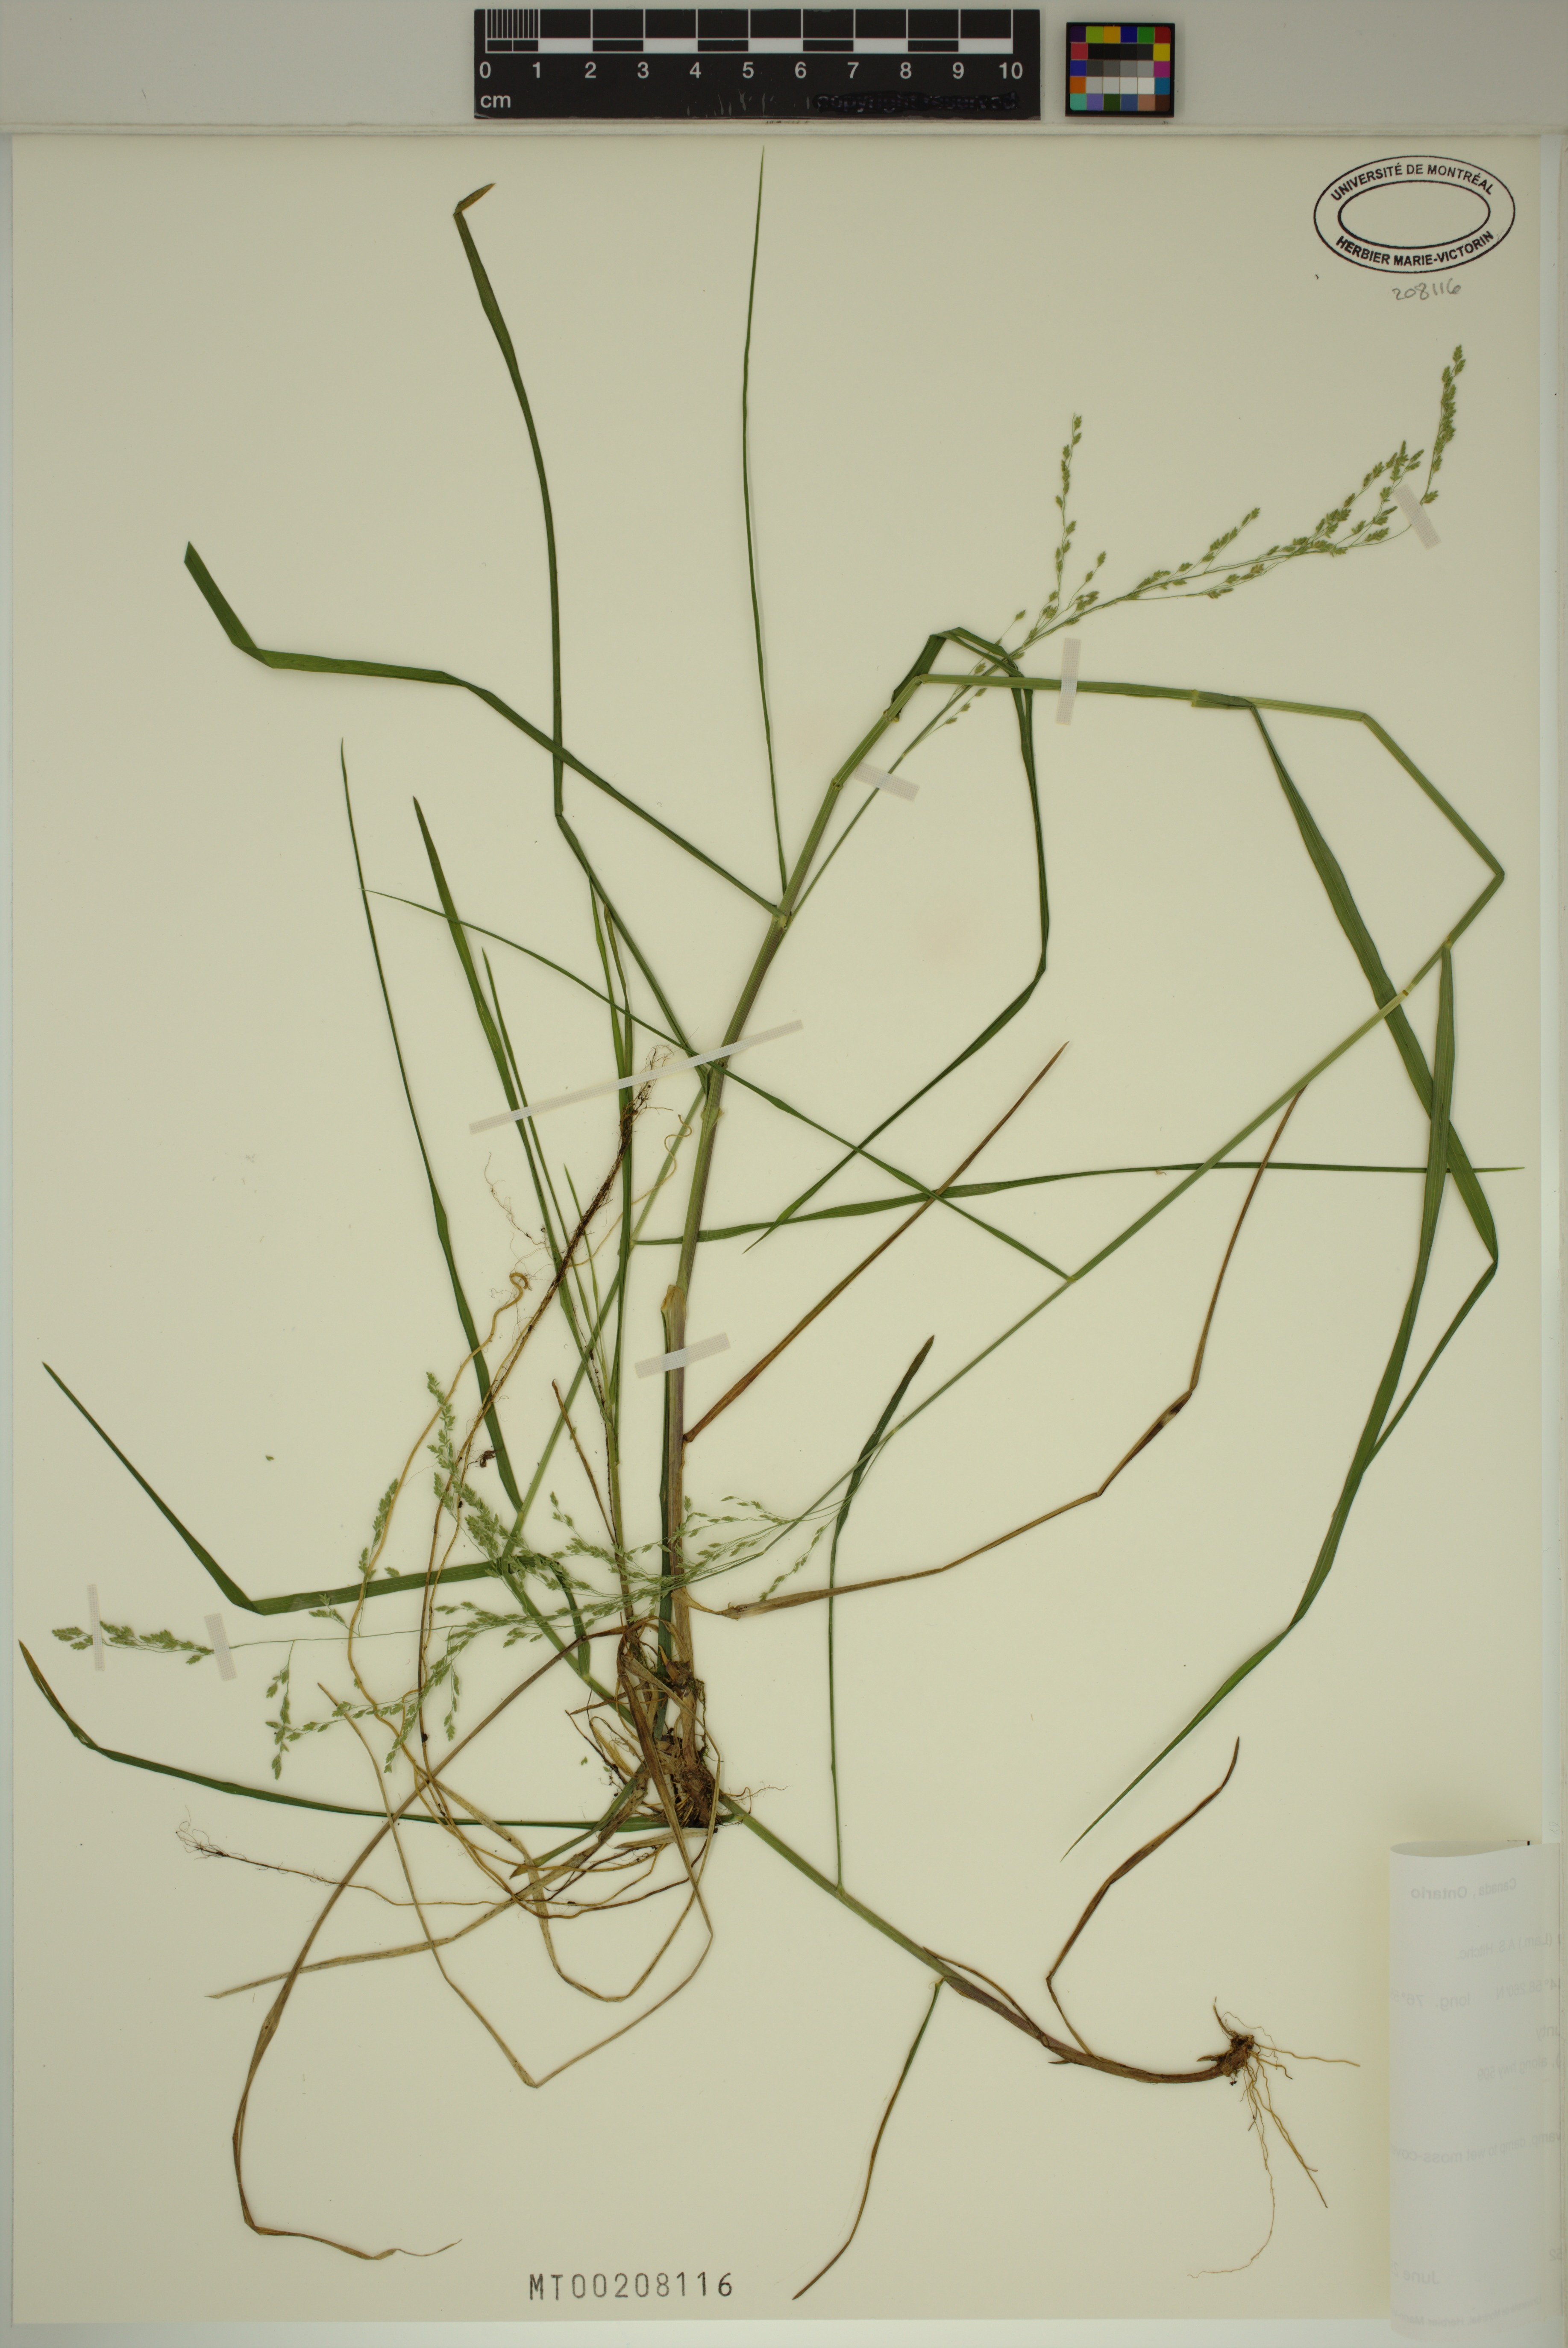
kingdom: Plantae
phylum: Tracheophyta
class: Liliopsida
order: Poales
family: Poaceae
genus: Glyceria
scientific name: Glyceria striata
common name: Fowl manna grass
